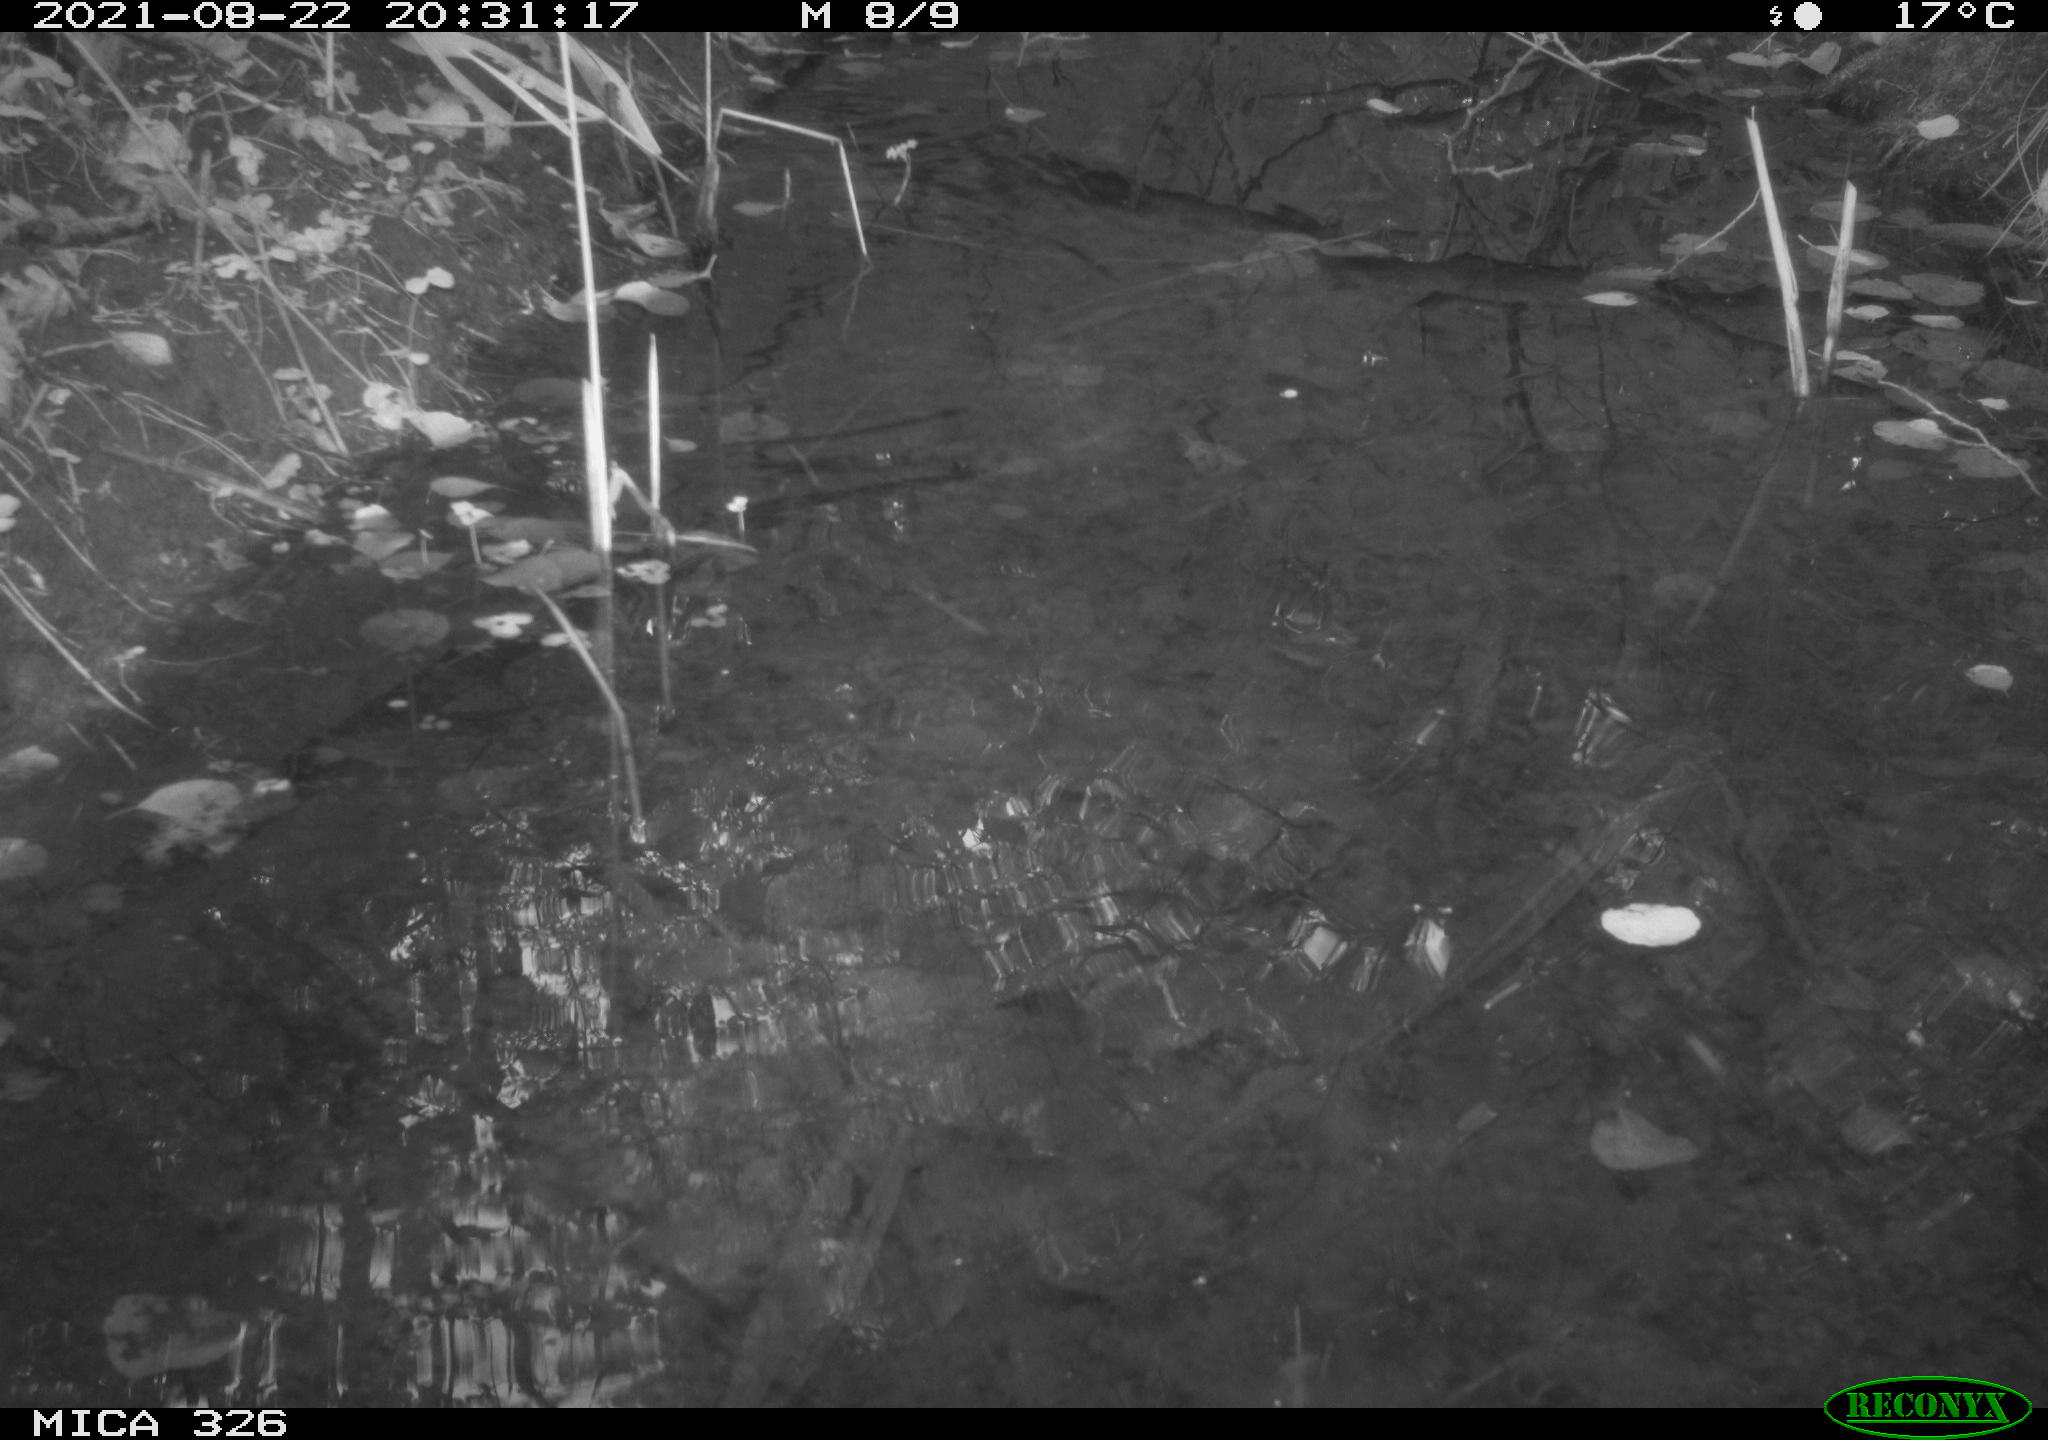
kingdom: Animalia
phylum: Chordata
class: Mammalia
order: Rodentia
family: Muridae
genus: Rattus
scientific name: Rattus norvegicus
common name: Brown rat
